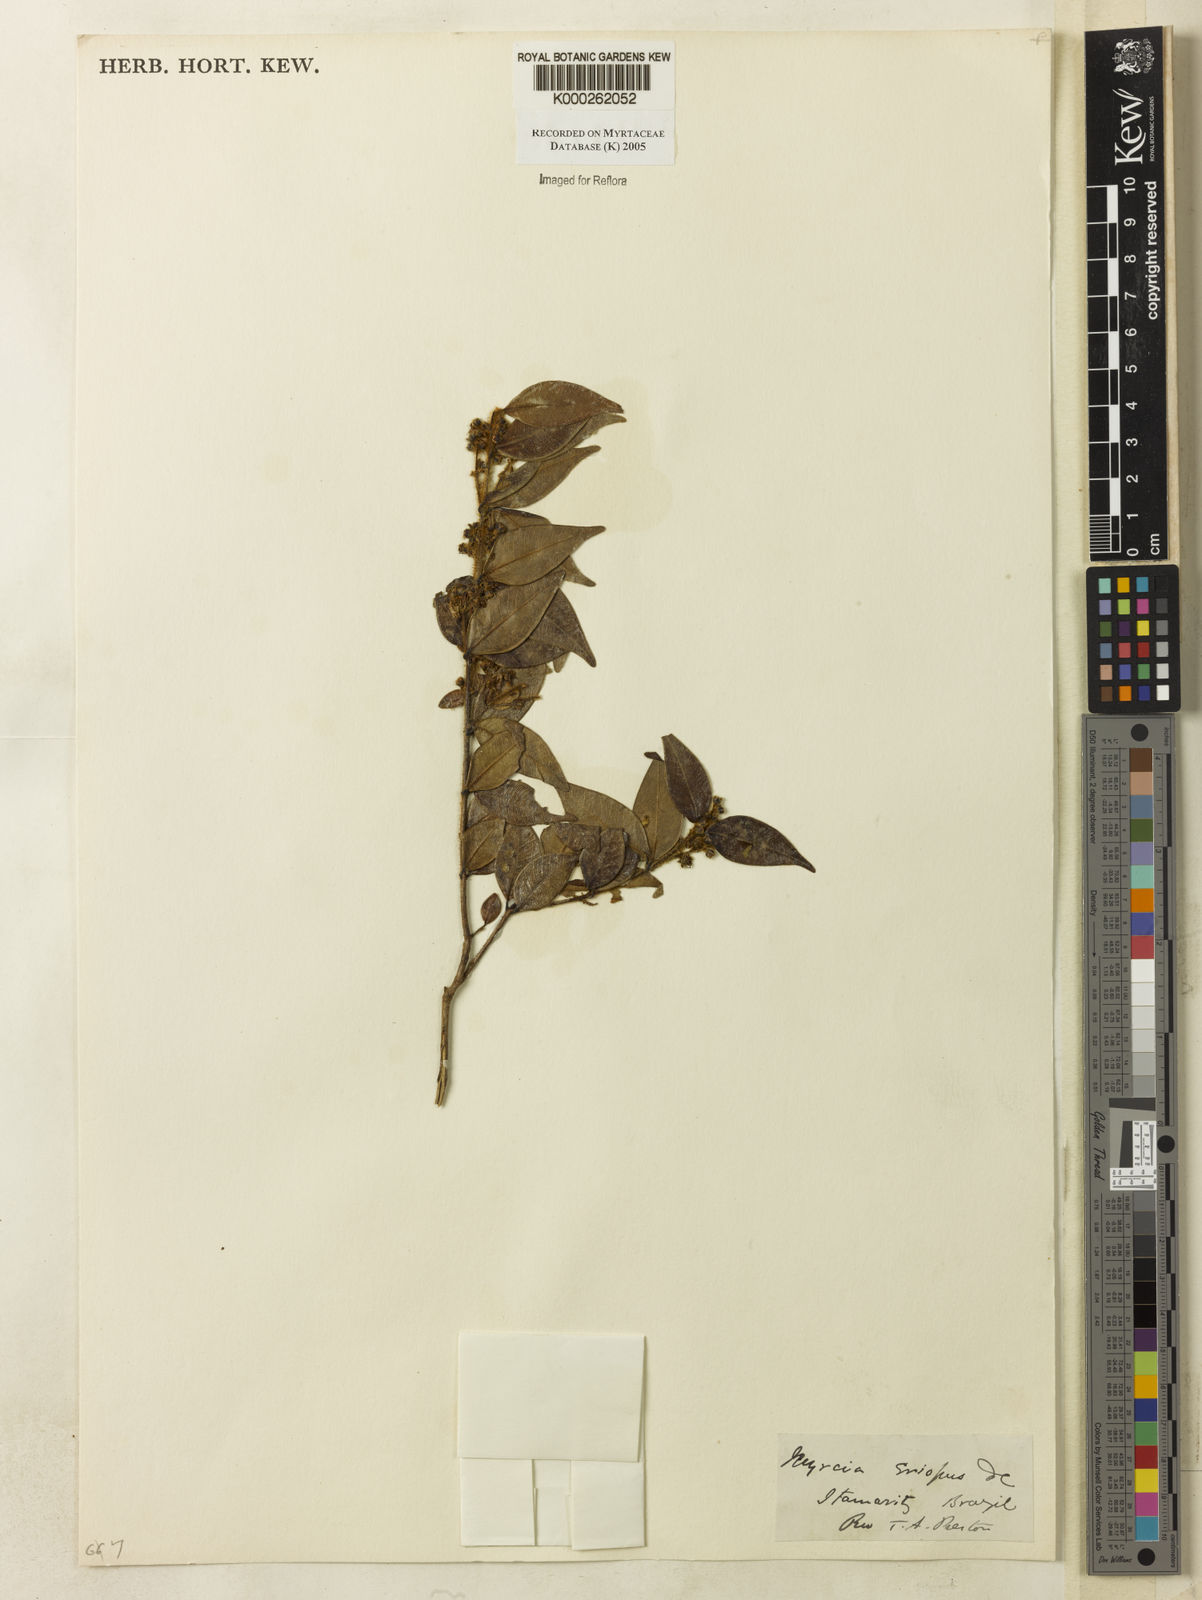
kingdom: Plantae
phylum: Tracheophyta
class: Magnoliopsida
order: Myrtales
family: Myrtaceae
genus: Myrcia
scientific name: Myrcia eriopus
